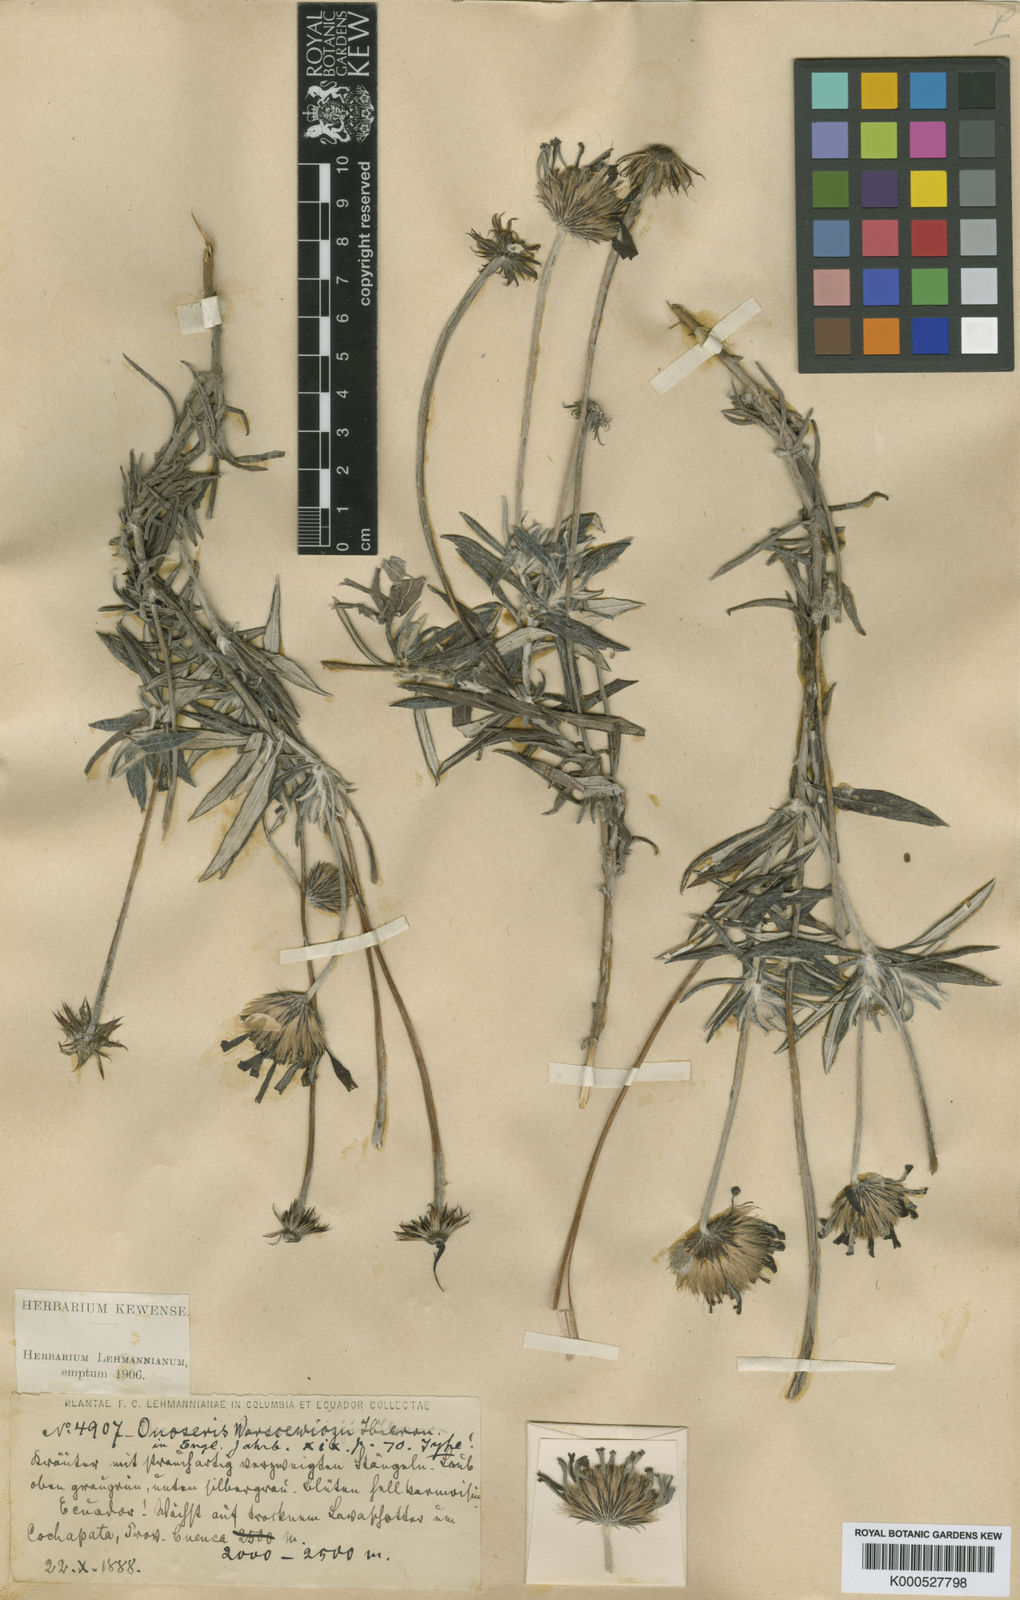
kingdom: Plantae
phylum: Tracheophyta
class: Magnoliopsida
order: Asterales
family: Asteraceae
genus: Onoseris
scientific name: Onoseris albicans
